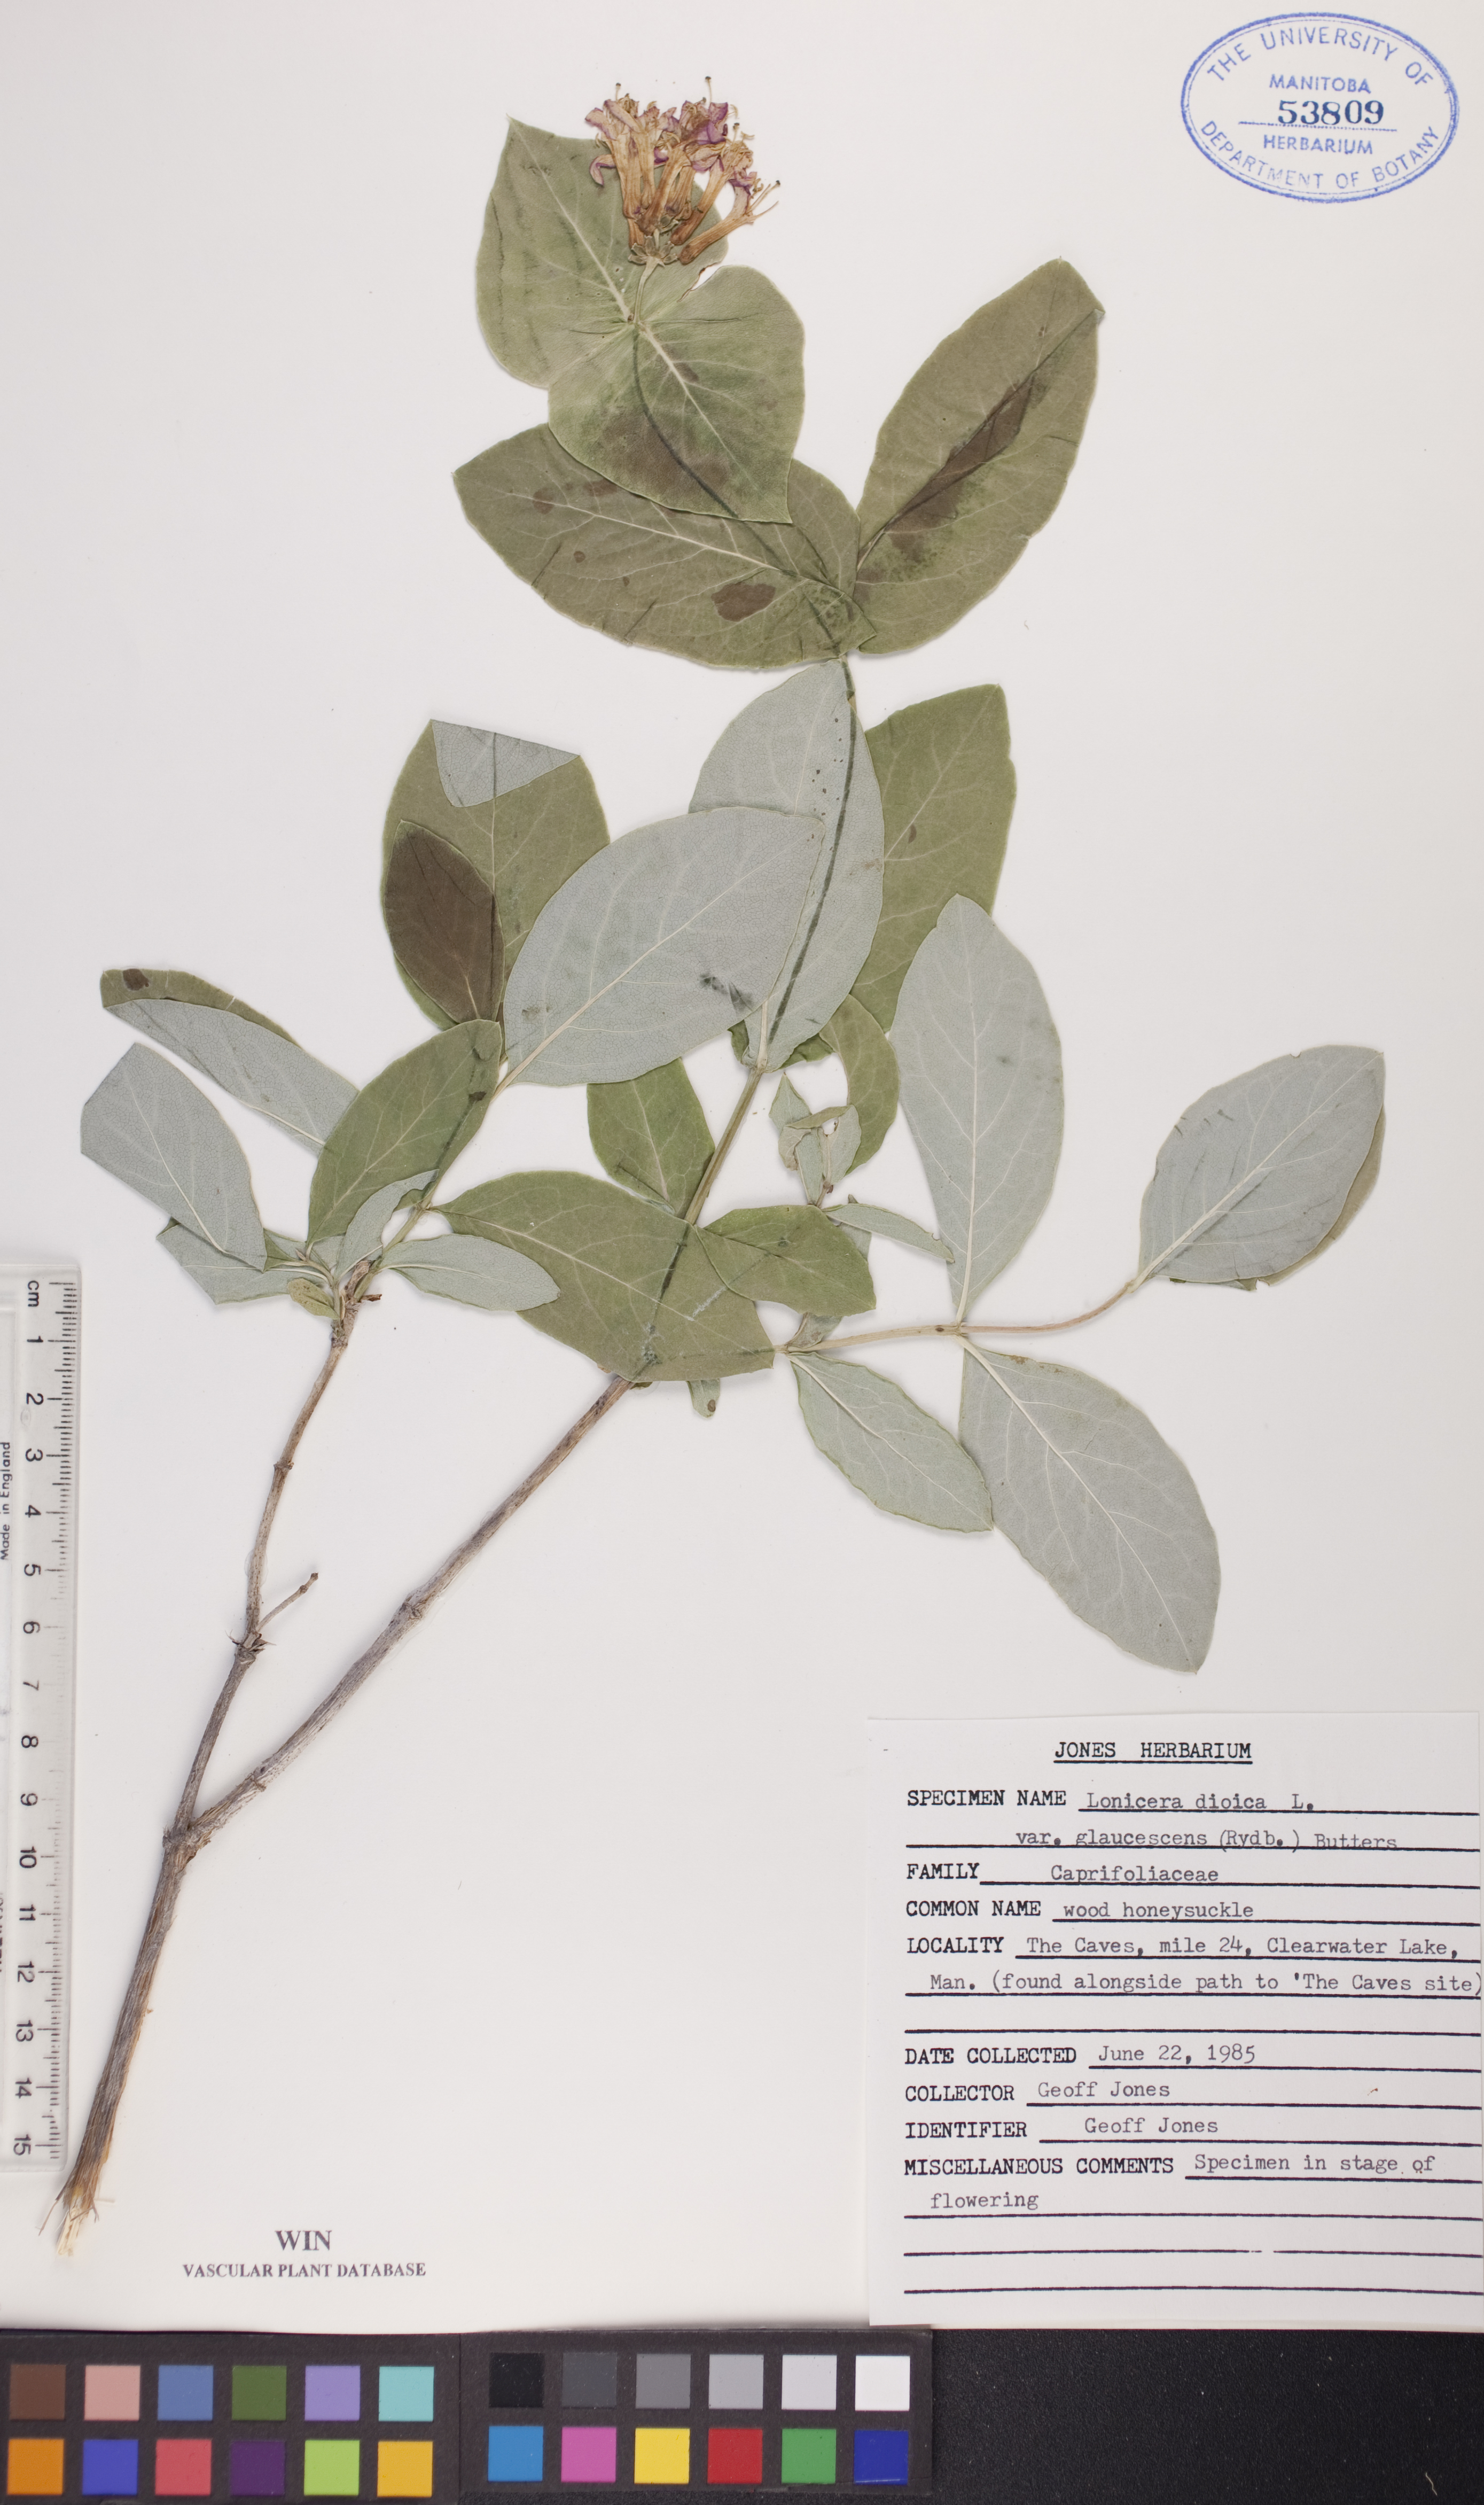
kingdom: Plantae
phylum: Tracheophyta
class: Magnoliopsida
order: Dipsacales
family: Caprifoliaceae
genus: Lonicera
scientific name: Lonicera dioica
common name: Limber honeysuckle
